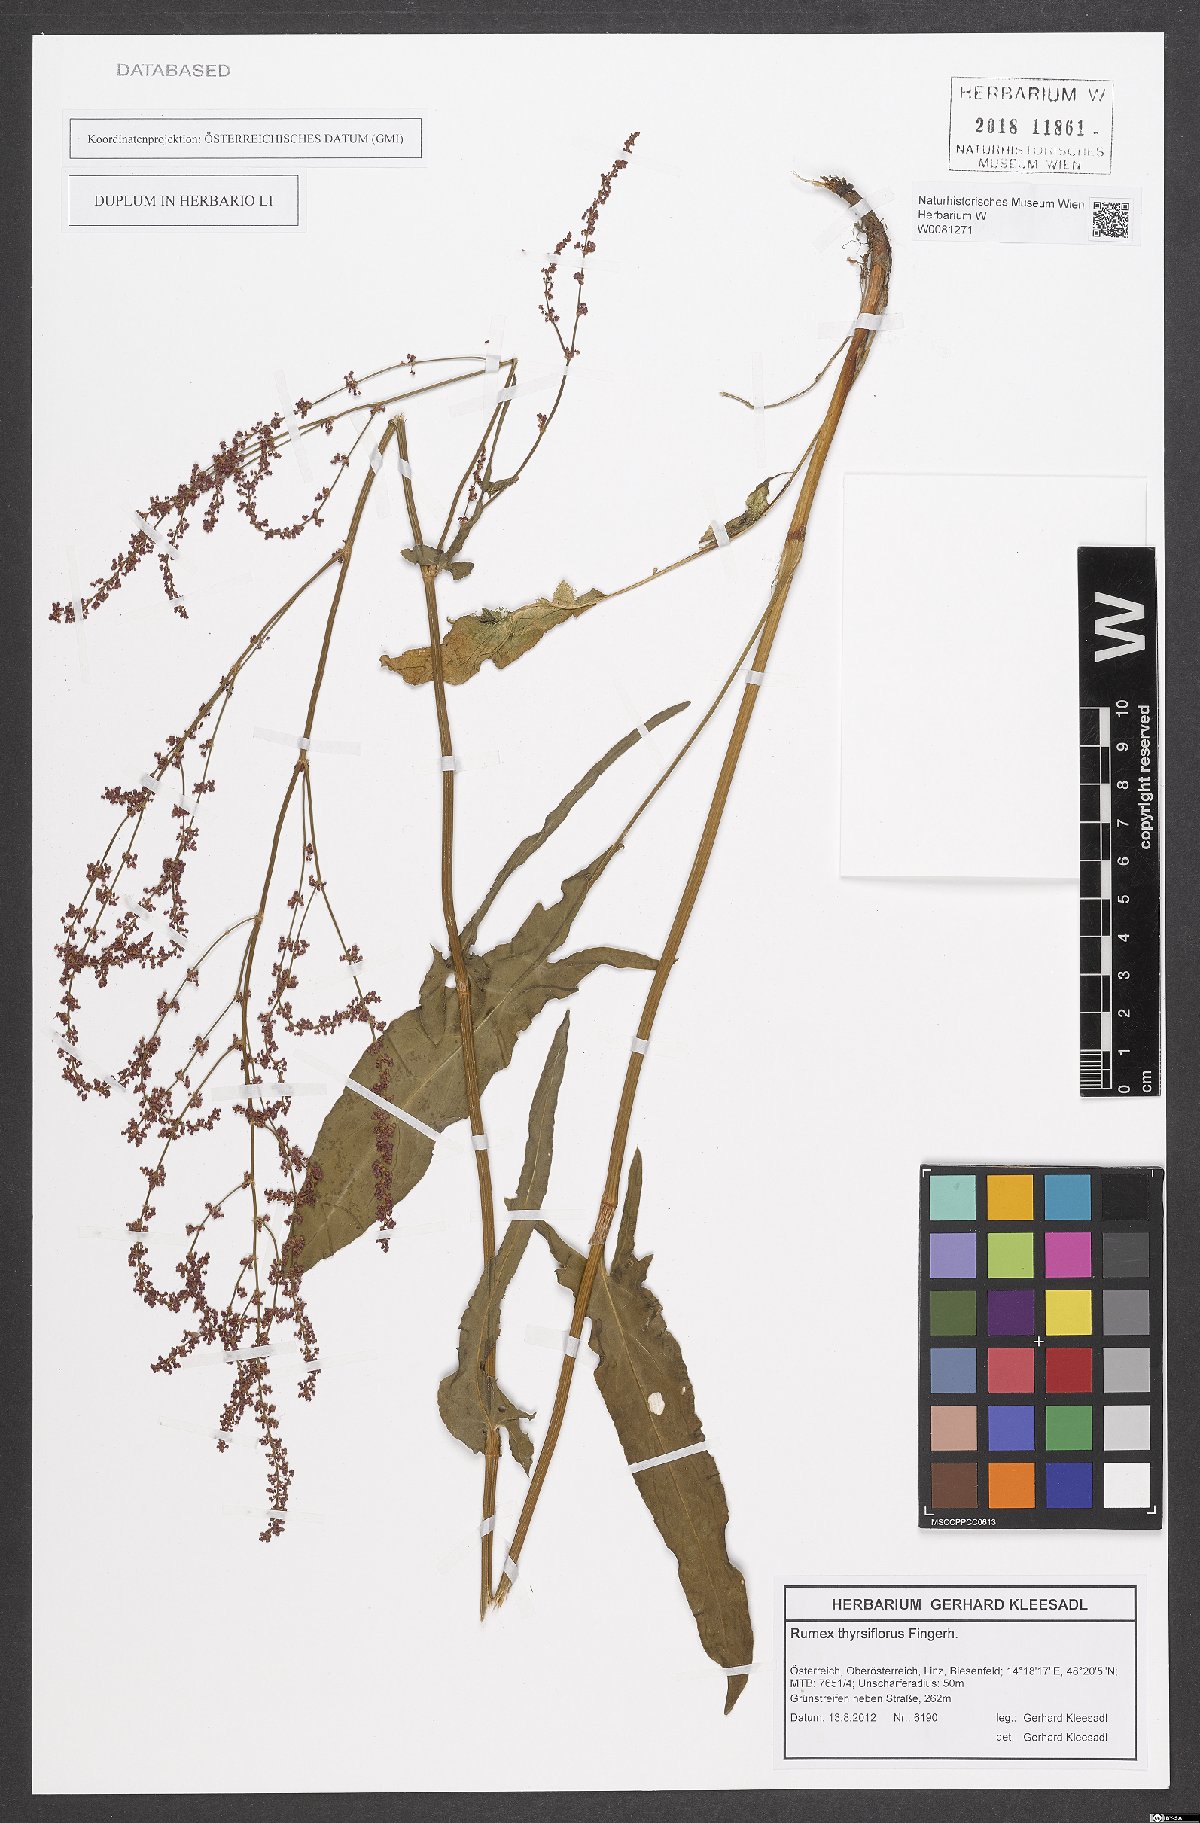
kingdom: Plantae
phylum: Tracheophyta
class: Magnoliopsida
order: Caryophyllales
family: Polygonaceae
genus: Rumex
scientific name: Rumex thyrsiflorus
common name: Garden sorrel
